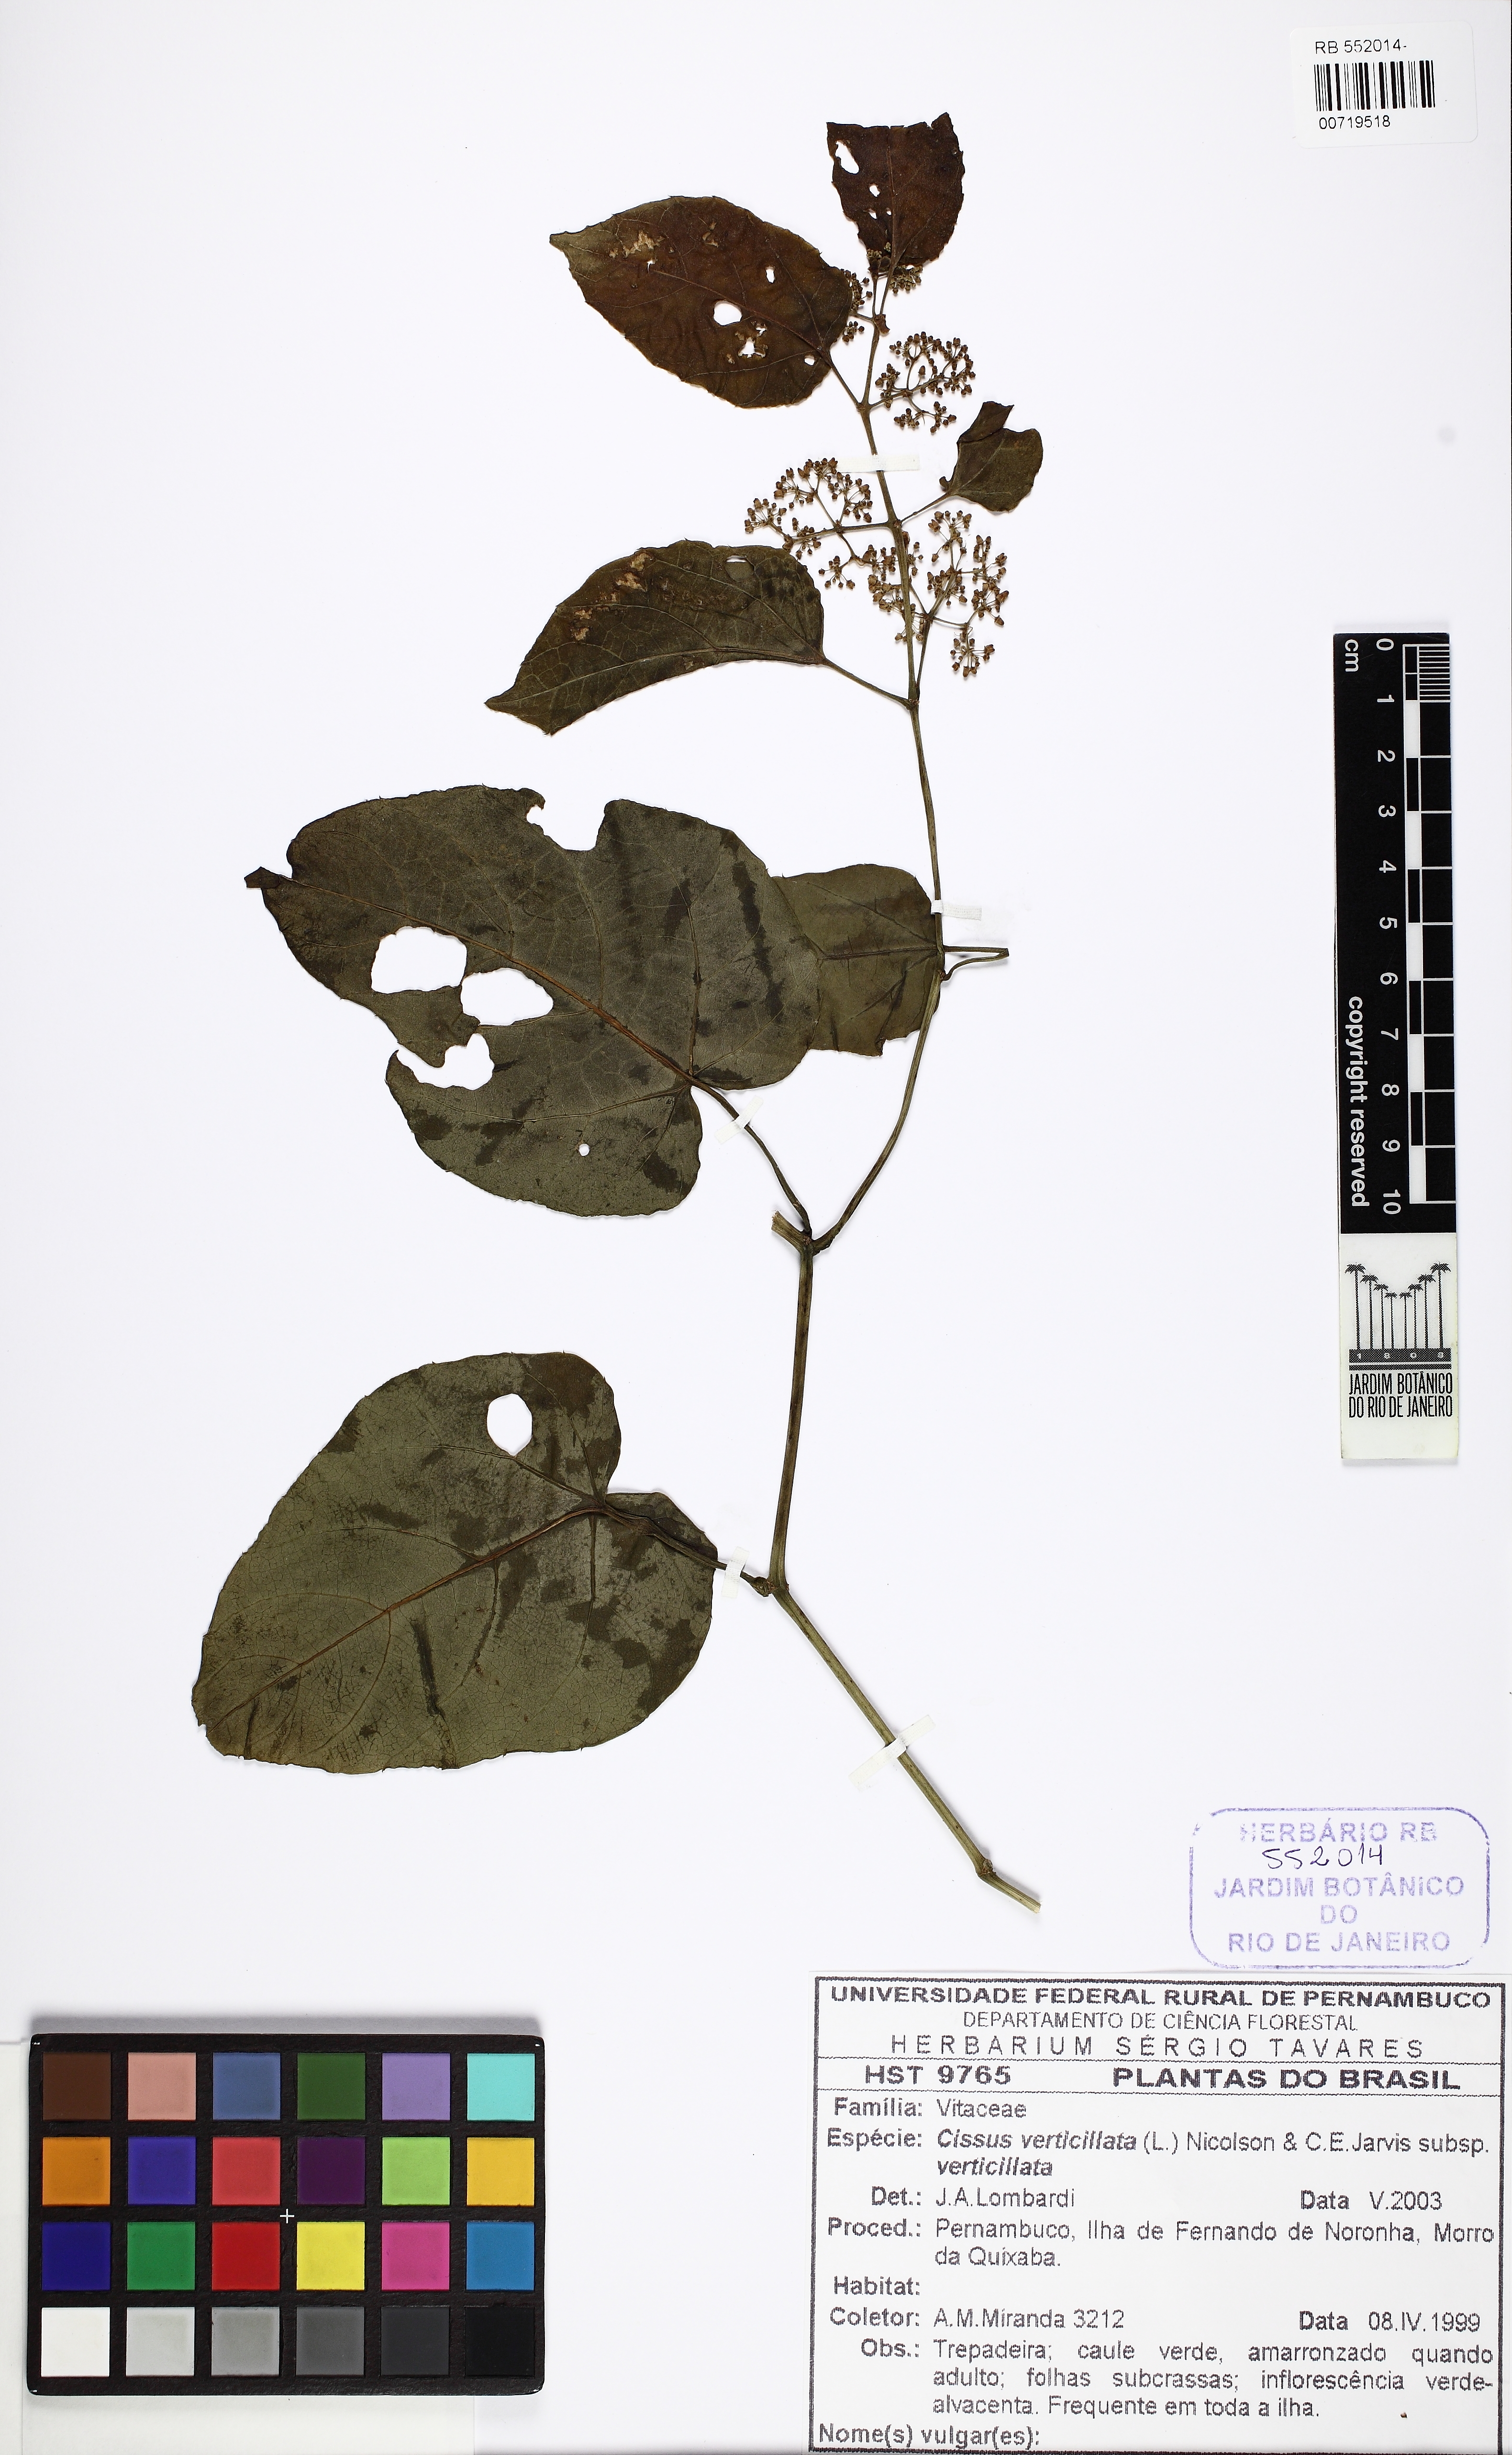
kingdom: Plantae
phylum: Tracheophyta
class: Magnoliopsida
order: Vitales
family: Vitaceae
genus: Cissus
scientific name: Cissus verticillata
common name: Princess vine
